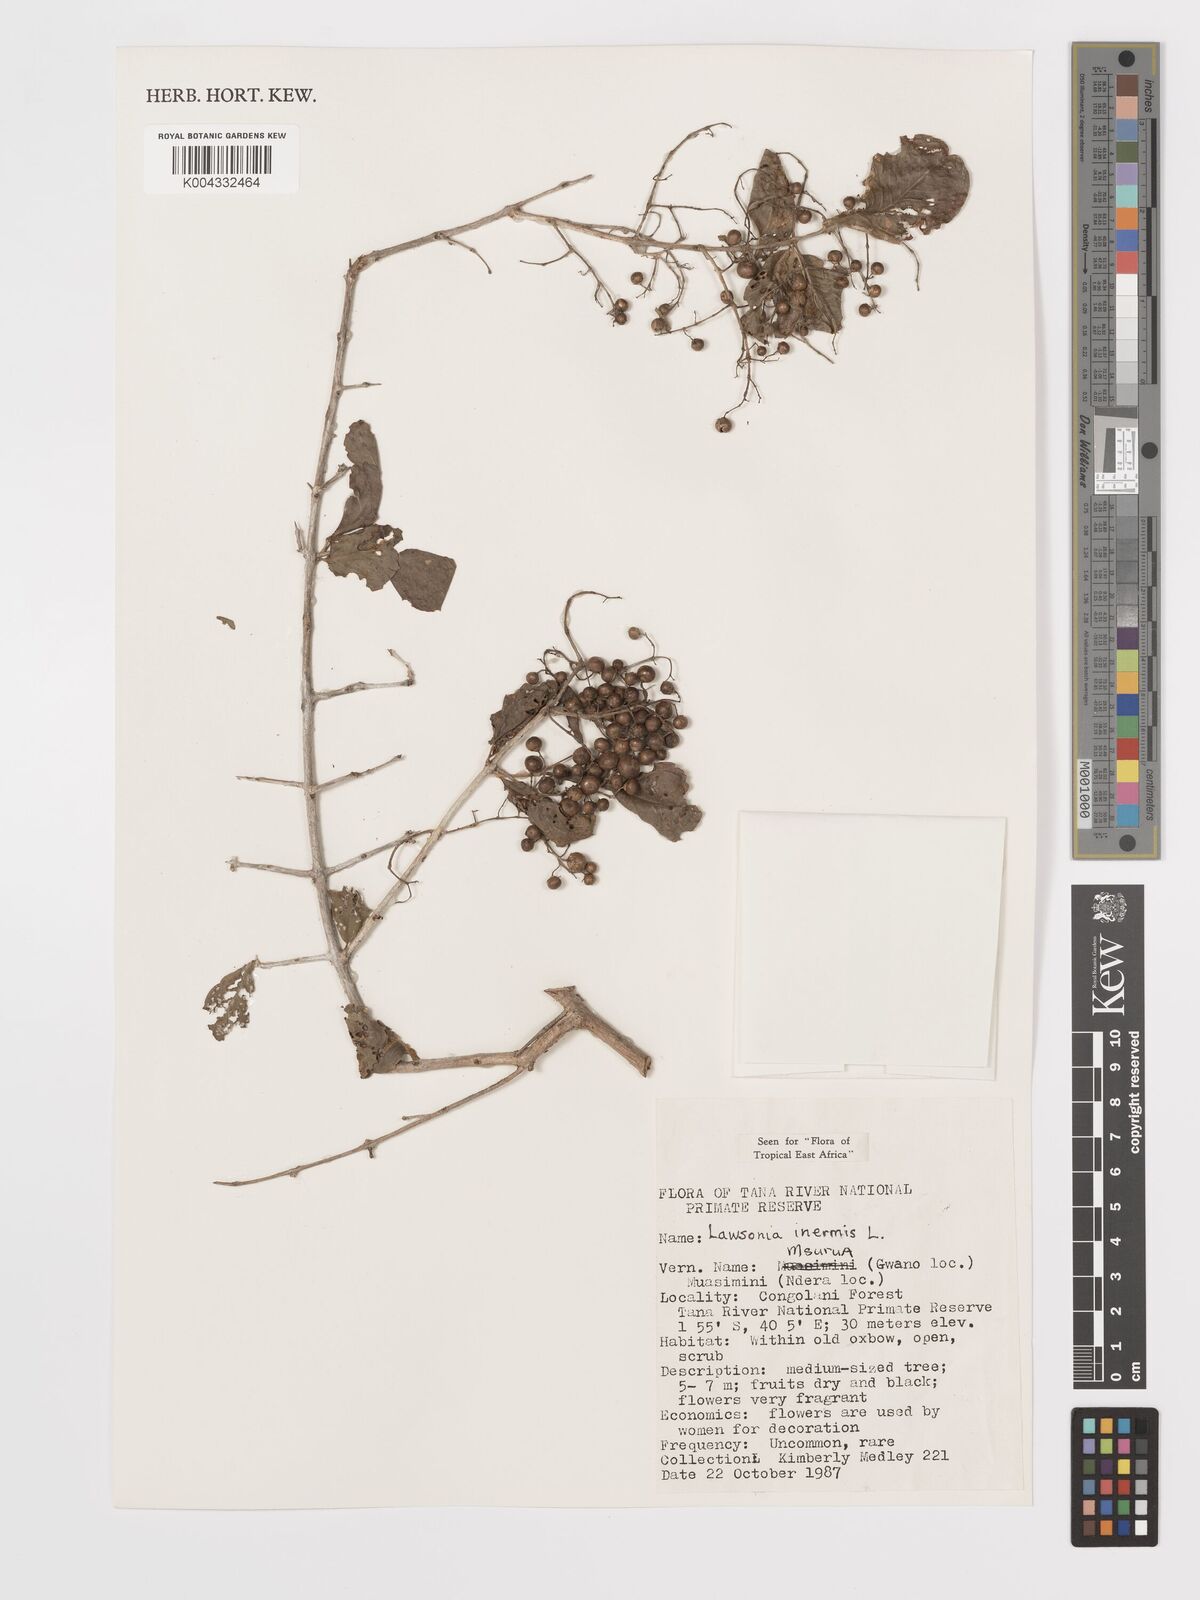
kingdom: Plantae
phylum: Tracheophyta
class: Magnoliopsida
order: Myrtales
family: Lythraceae
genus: Lawsonia
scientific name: Lawsonia inermis
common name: Henna
